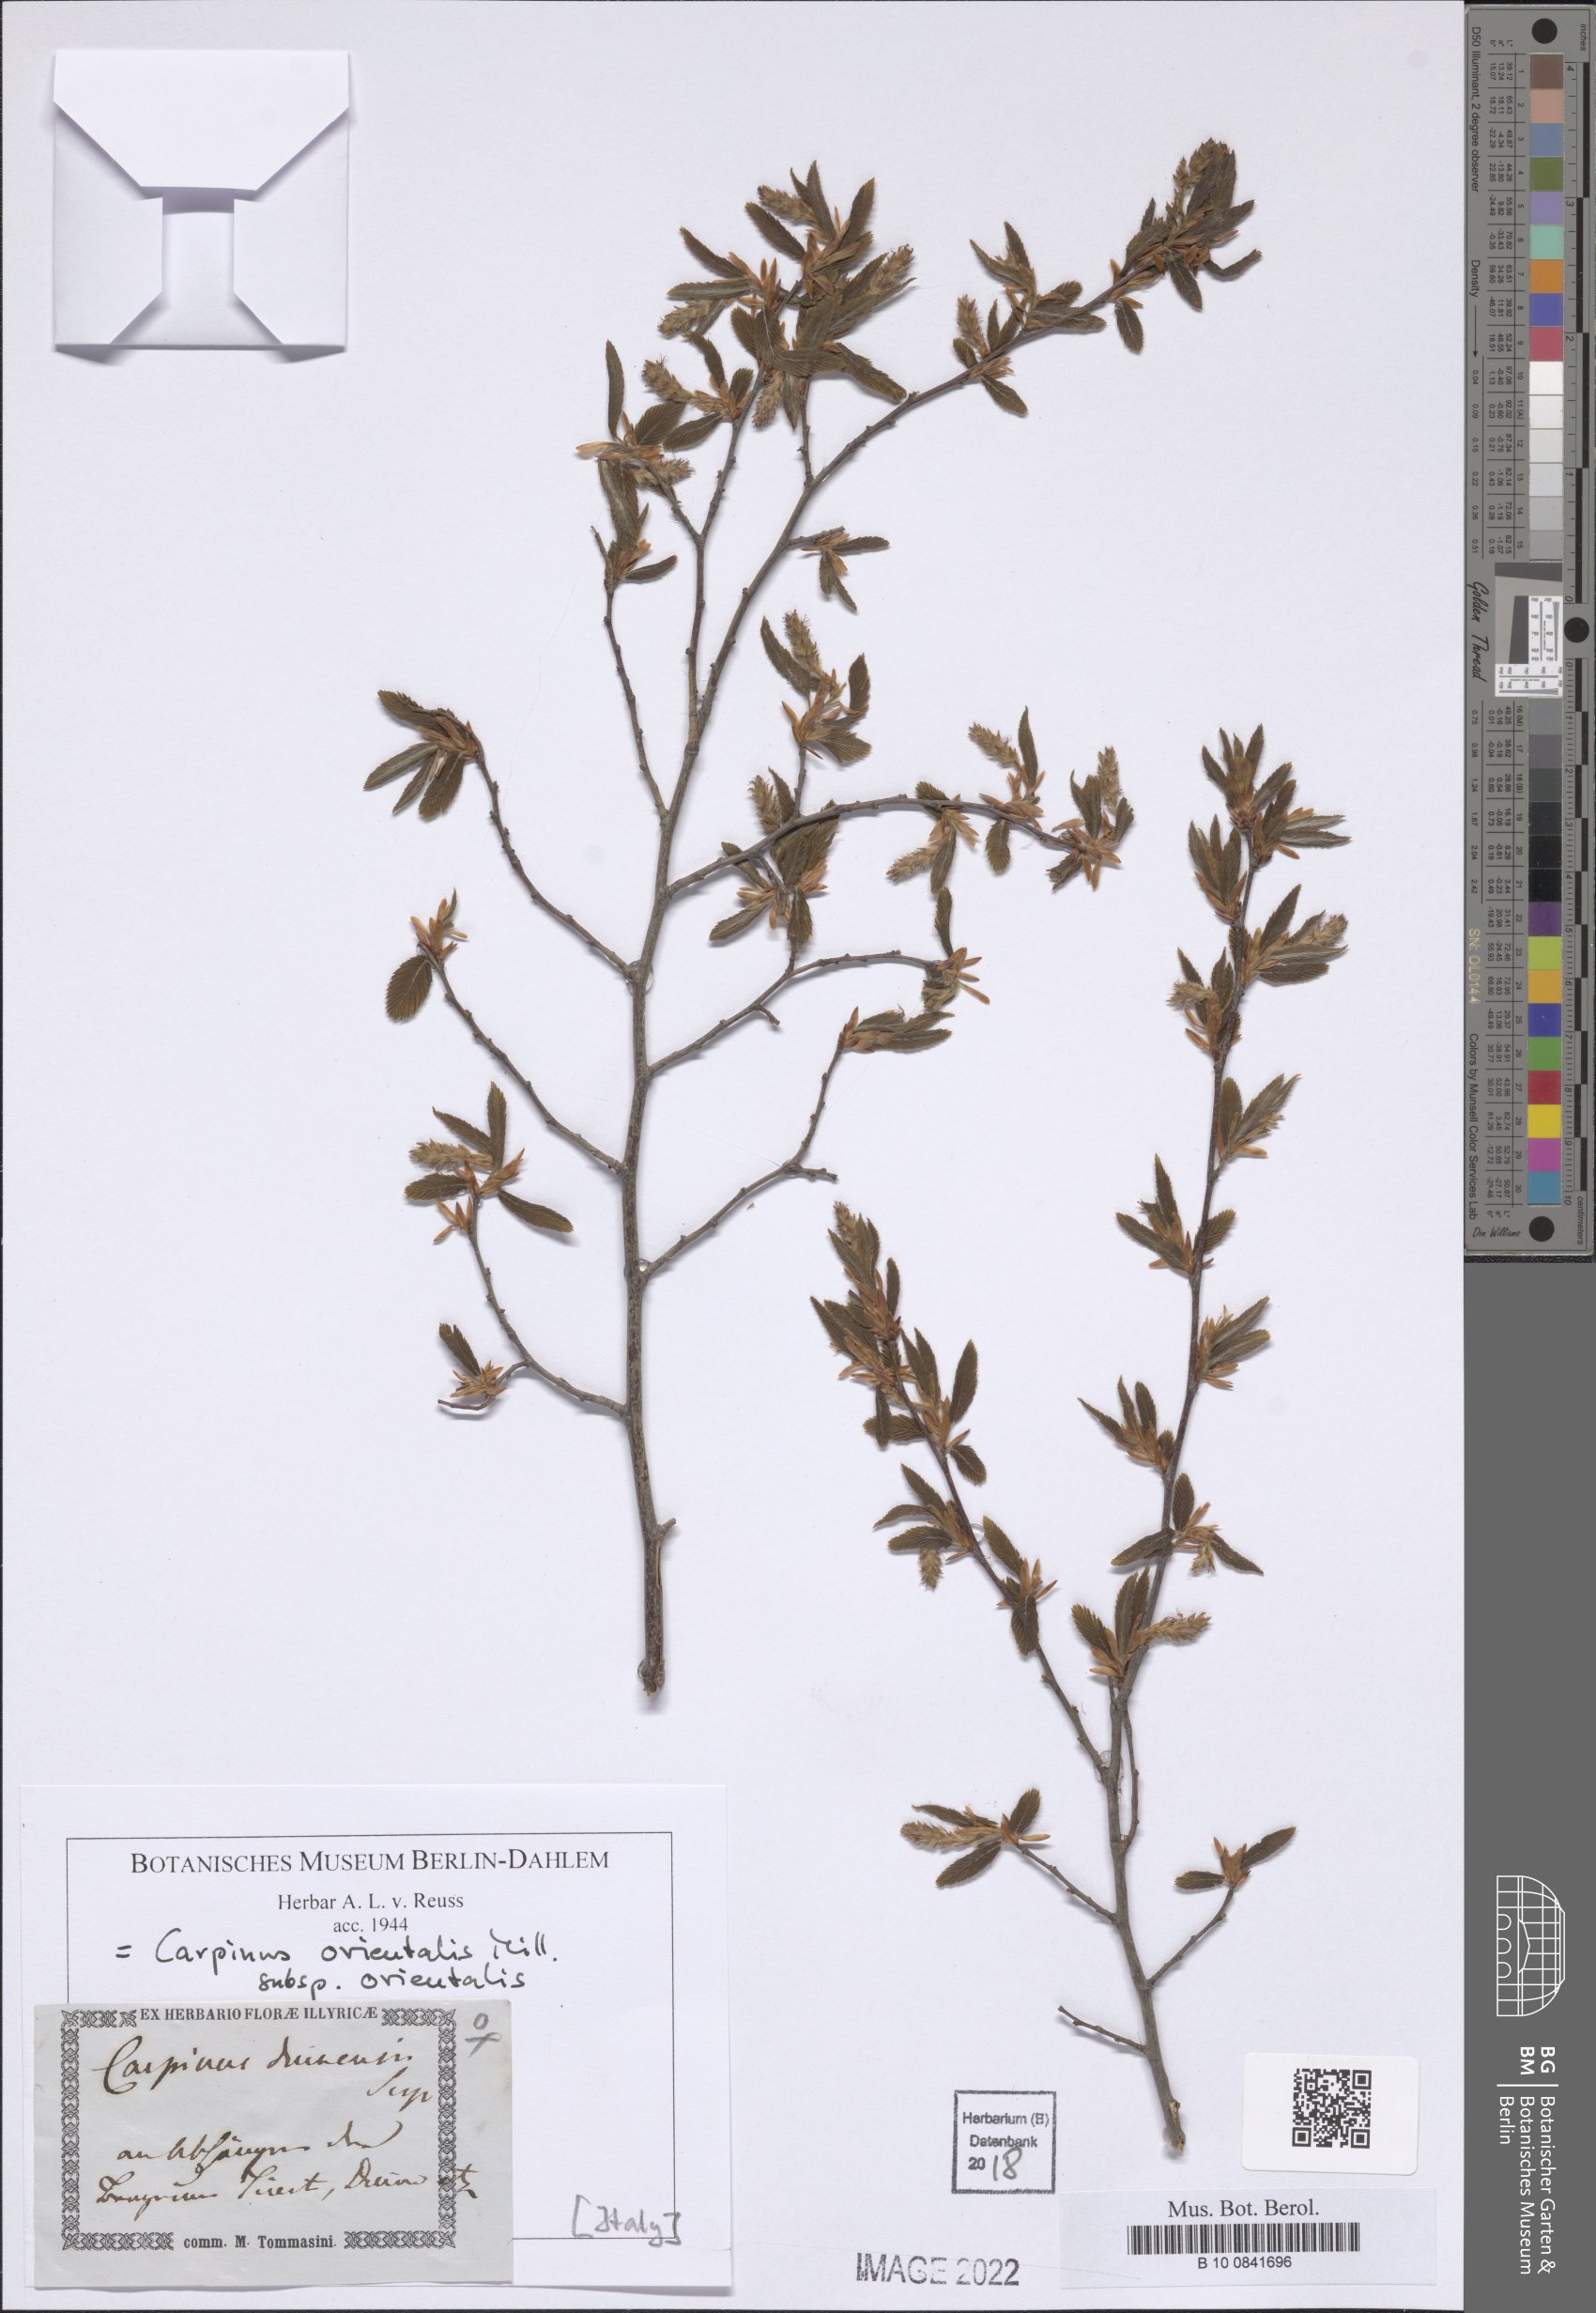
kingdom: Plantae
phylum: Tracheophyta
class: Magnoliopsida
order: Fagales
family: Betulaceae
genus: Carpinus
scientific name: Carpinus orientalis
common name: Eastern hornbeam
